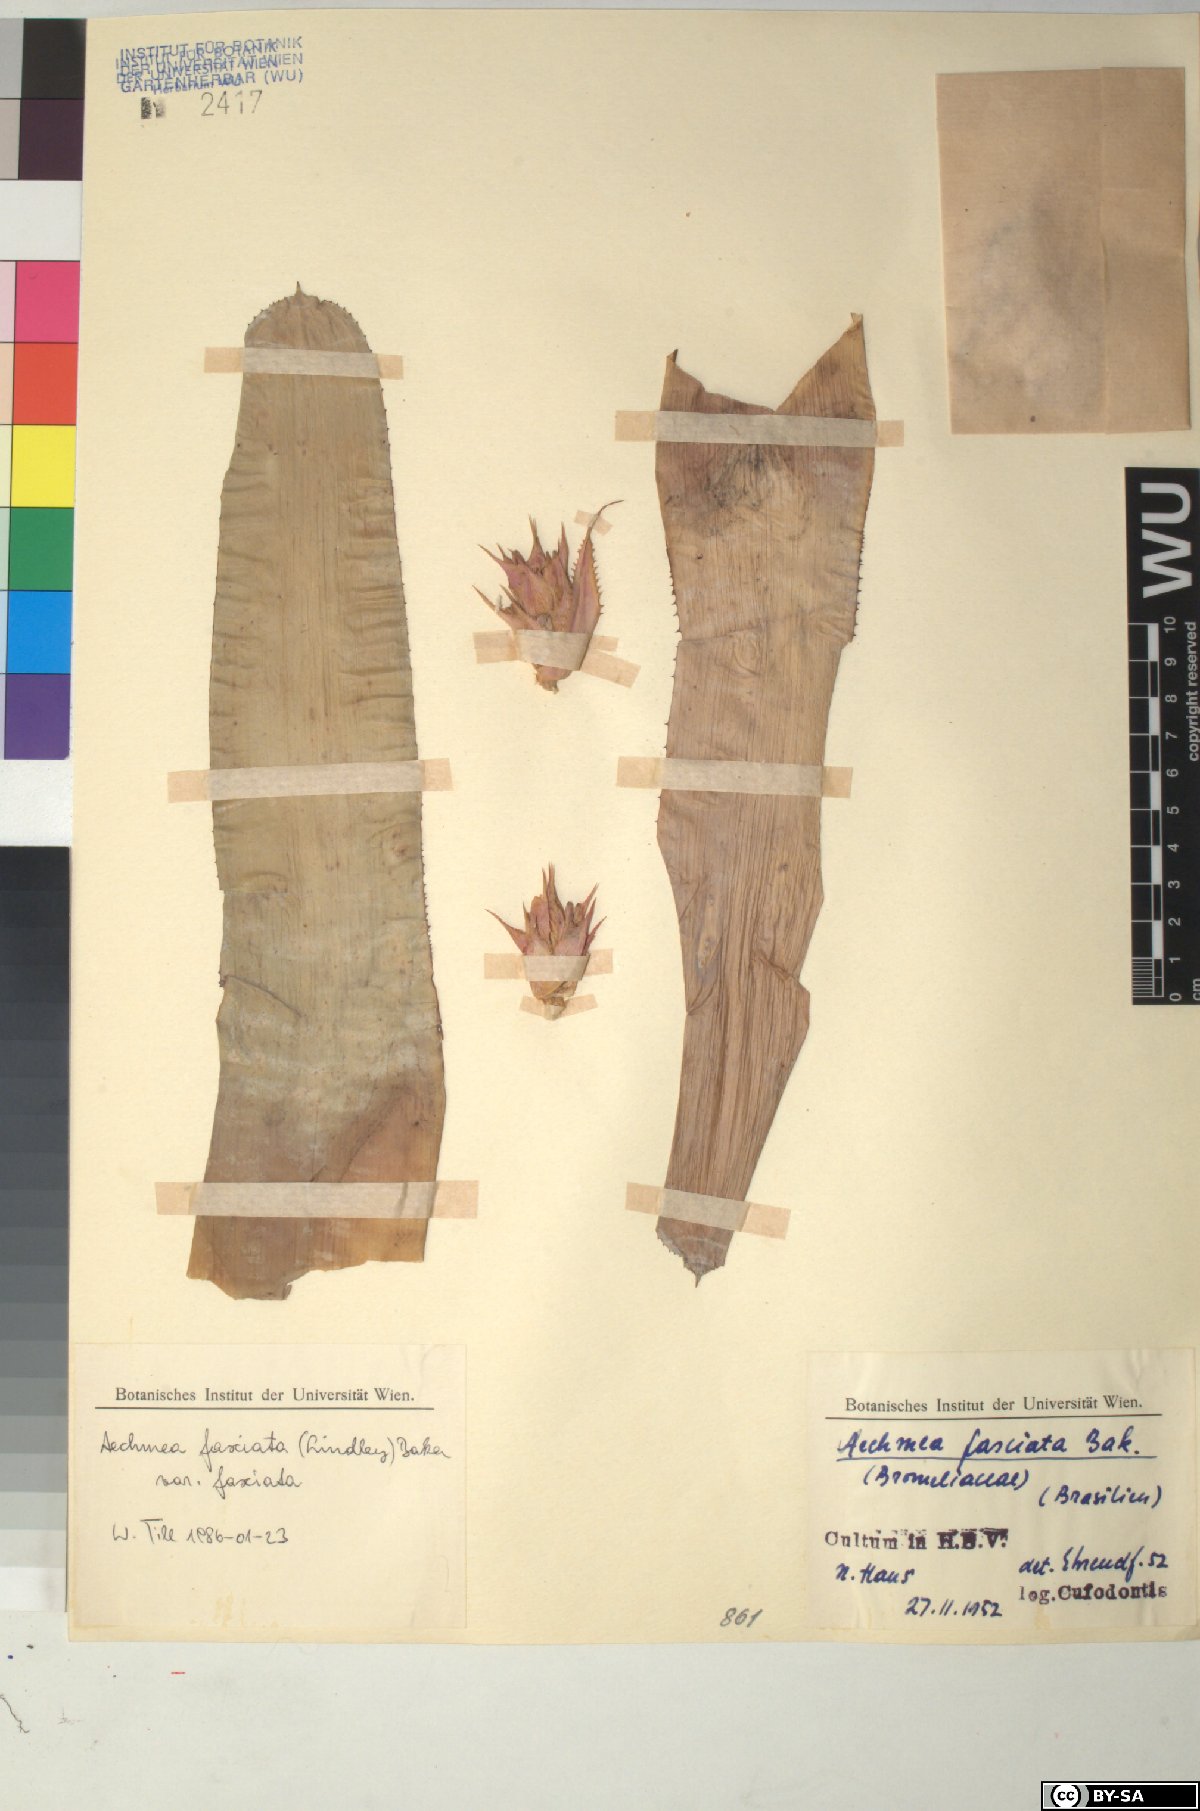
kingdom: Plantae
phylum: Tracheophyta
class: Liliopsida
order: Poales
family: Bromeliaceae
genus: Aechmea
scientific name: Aechmea fasciata
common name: Urnplant
